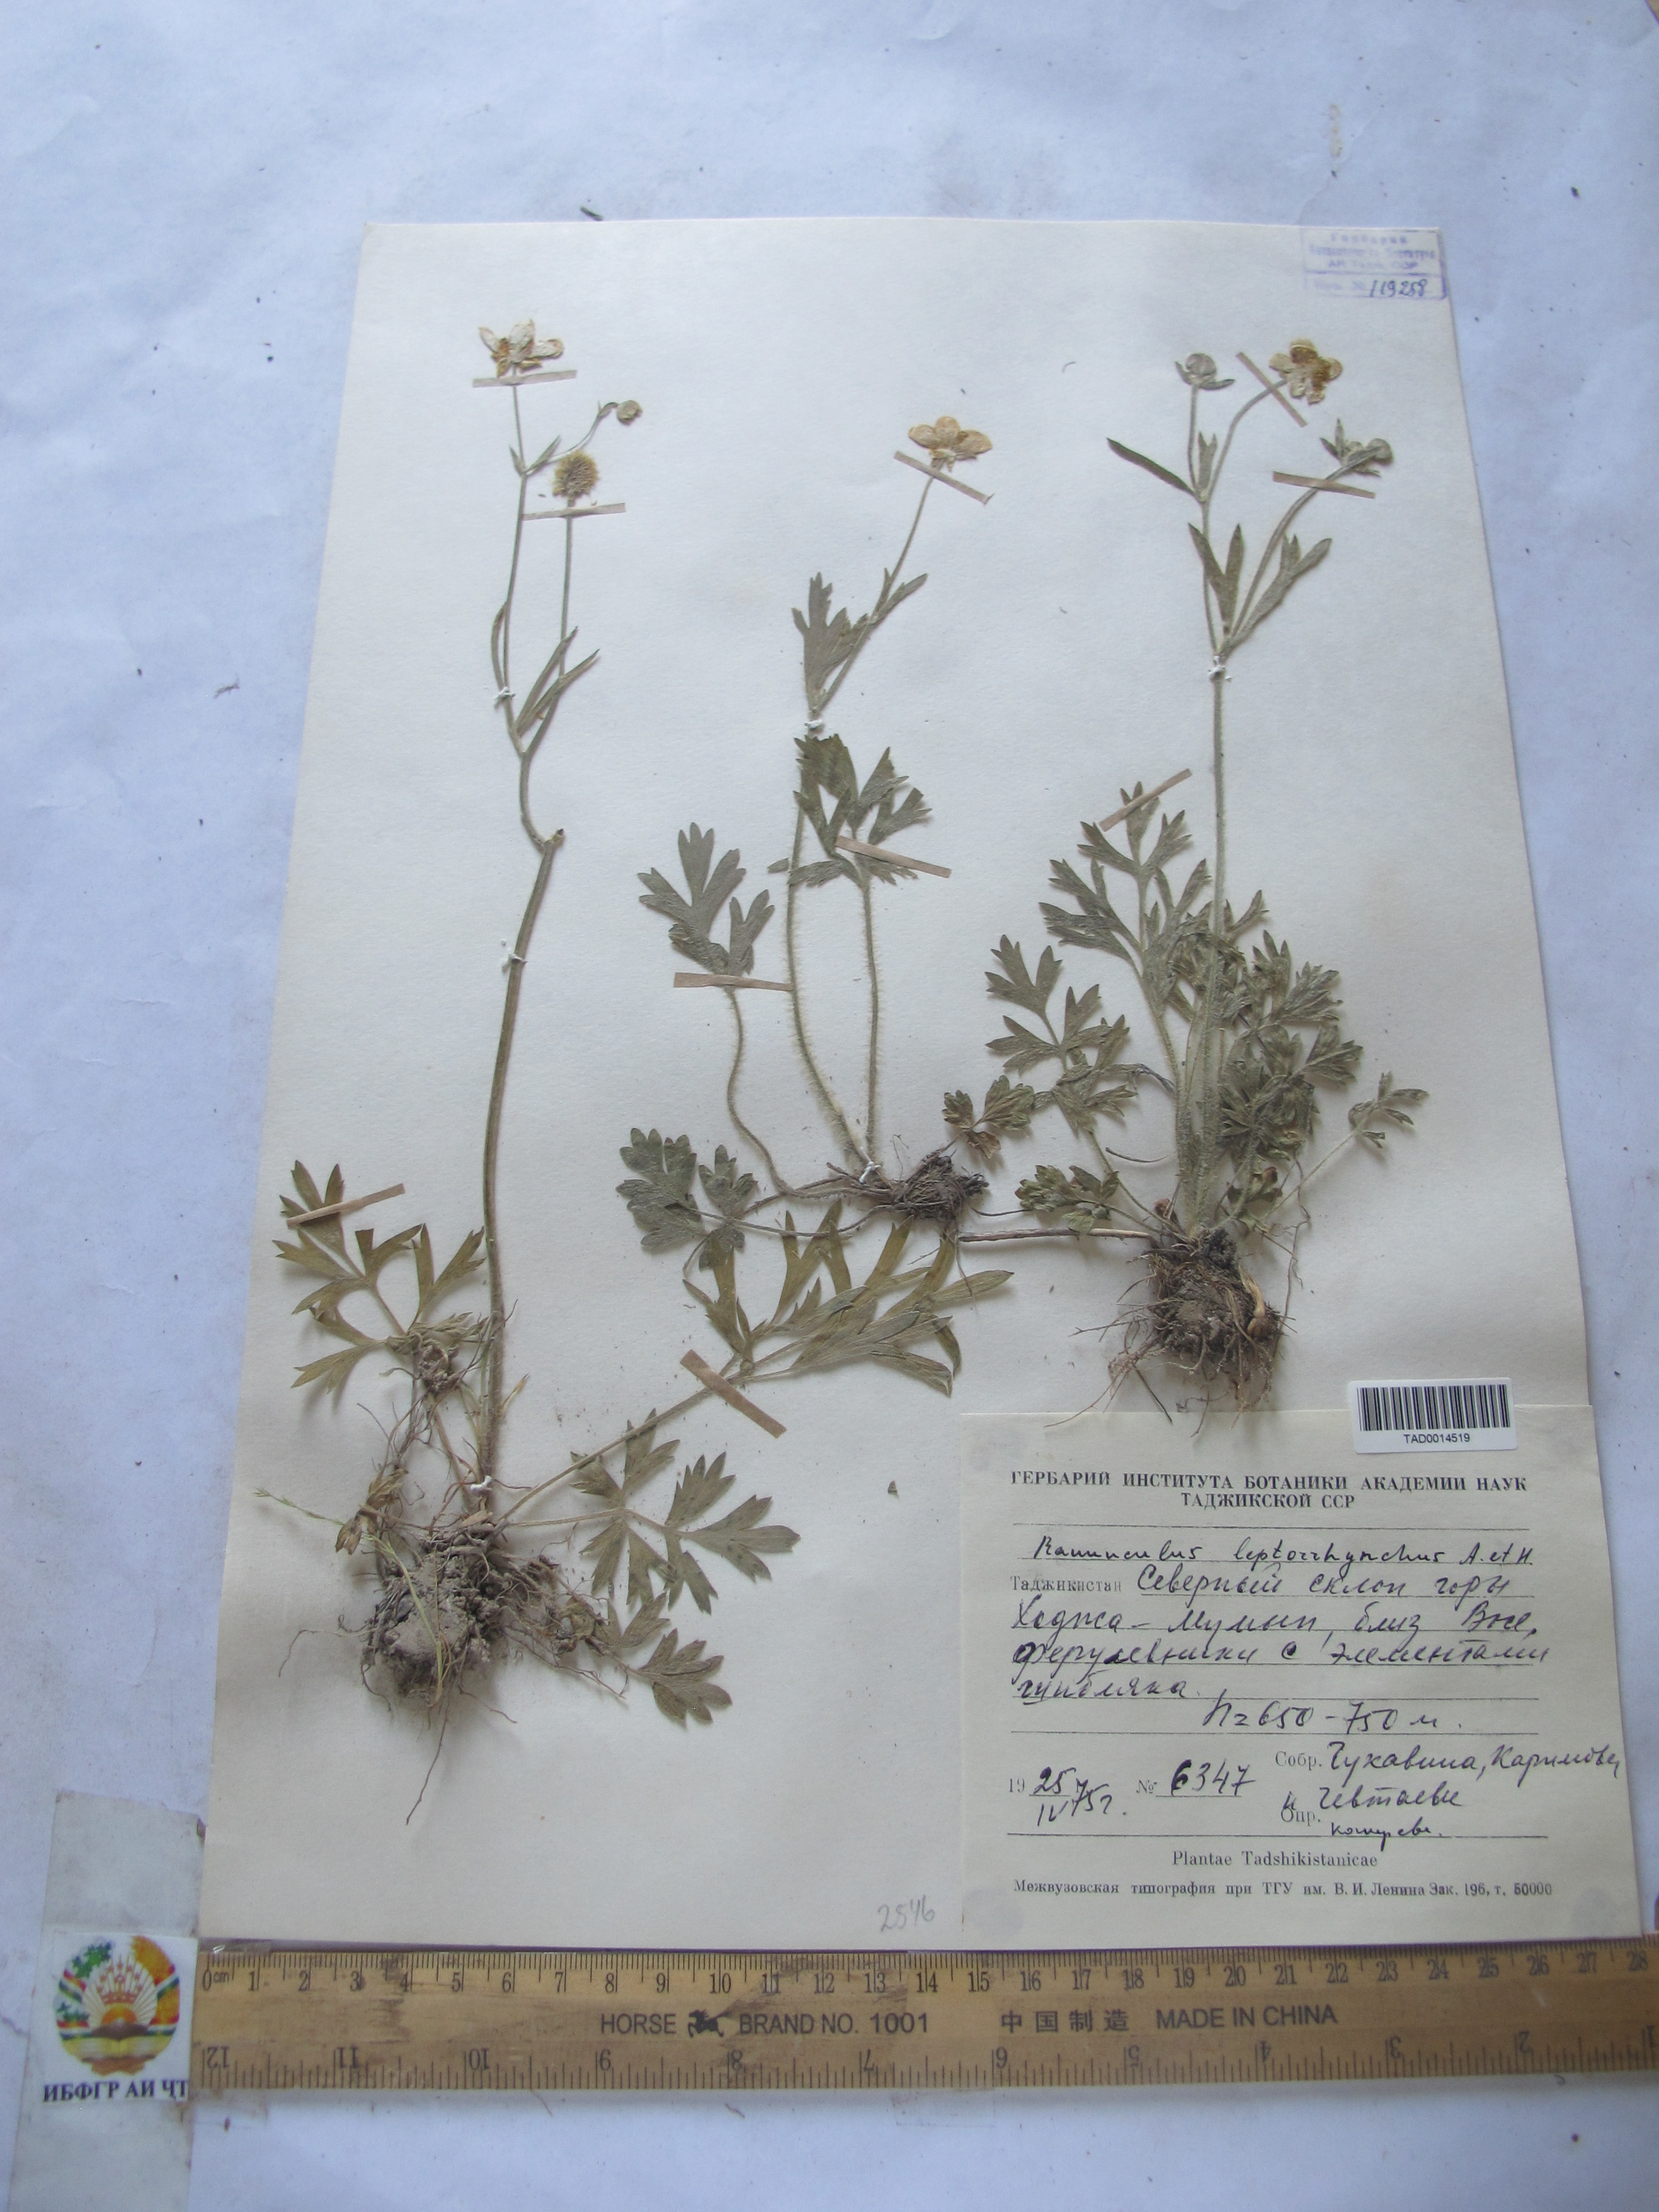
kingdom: Plantae
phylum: Tracheophyta
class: Magnoliopsida
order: Ranunculales
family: Ranunculaceae
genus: Ranunculus
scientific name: Ranunculus leptorrhynchus
